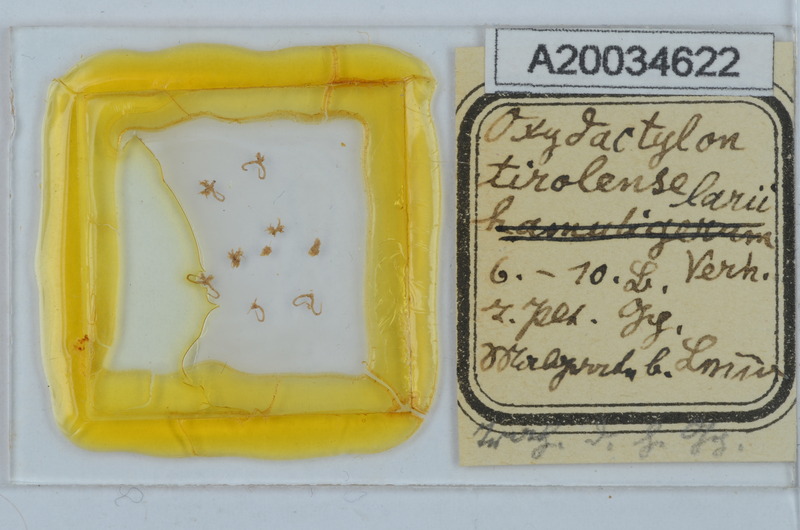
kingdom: Animalia
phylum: Arthropoda
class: Diplopoda
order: Chordeumatida
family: Craspedosomatidae
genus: Iulogona
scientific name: Iulogona tirolense
